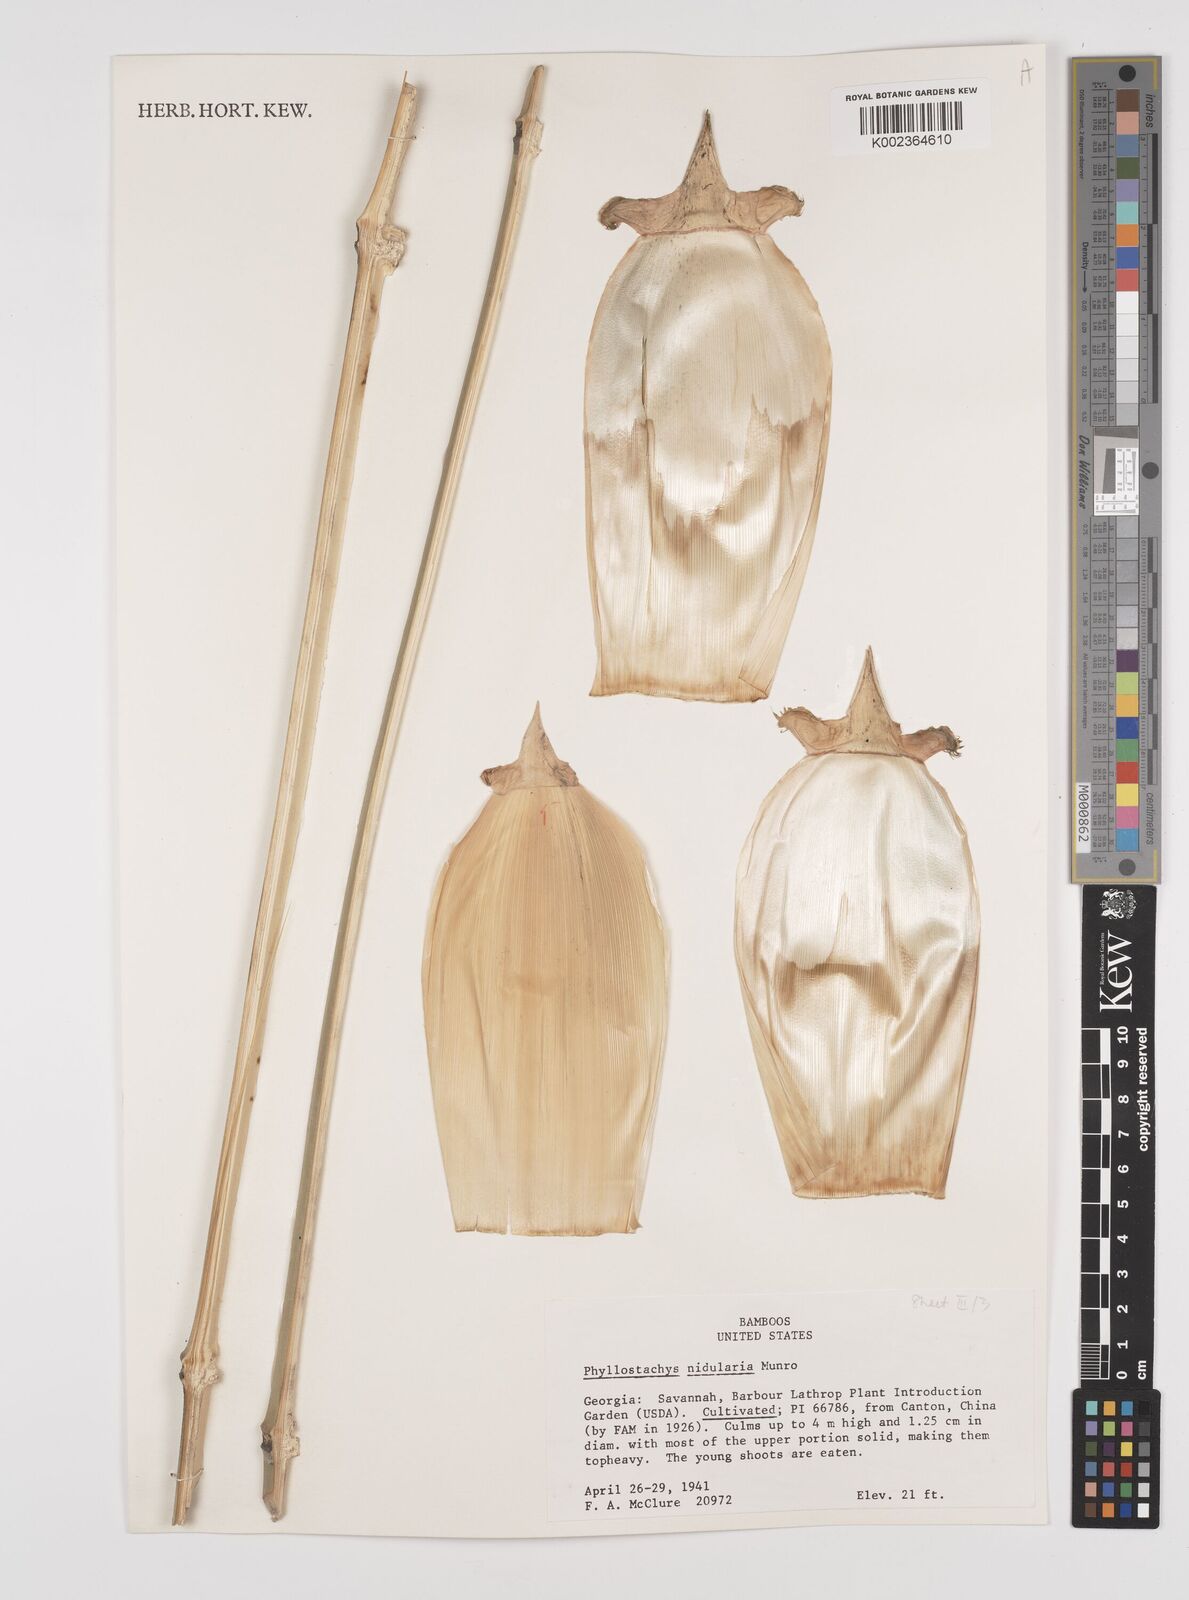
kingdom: Plantae
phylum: Tracheophyta
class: Liliopsida
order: Poales
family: Poaceae
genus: Phyllostachys
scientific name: Phyllostachys nidularia
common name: Broom bamboo
